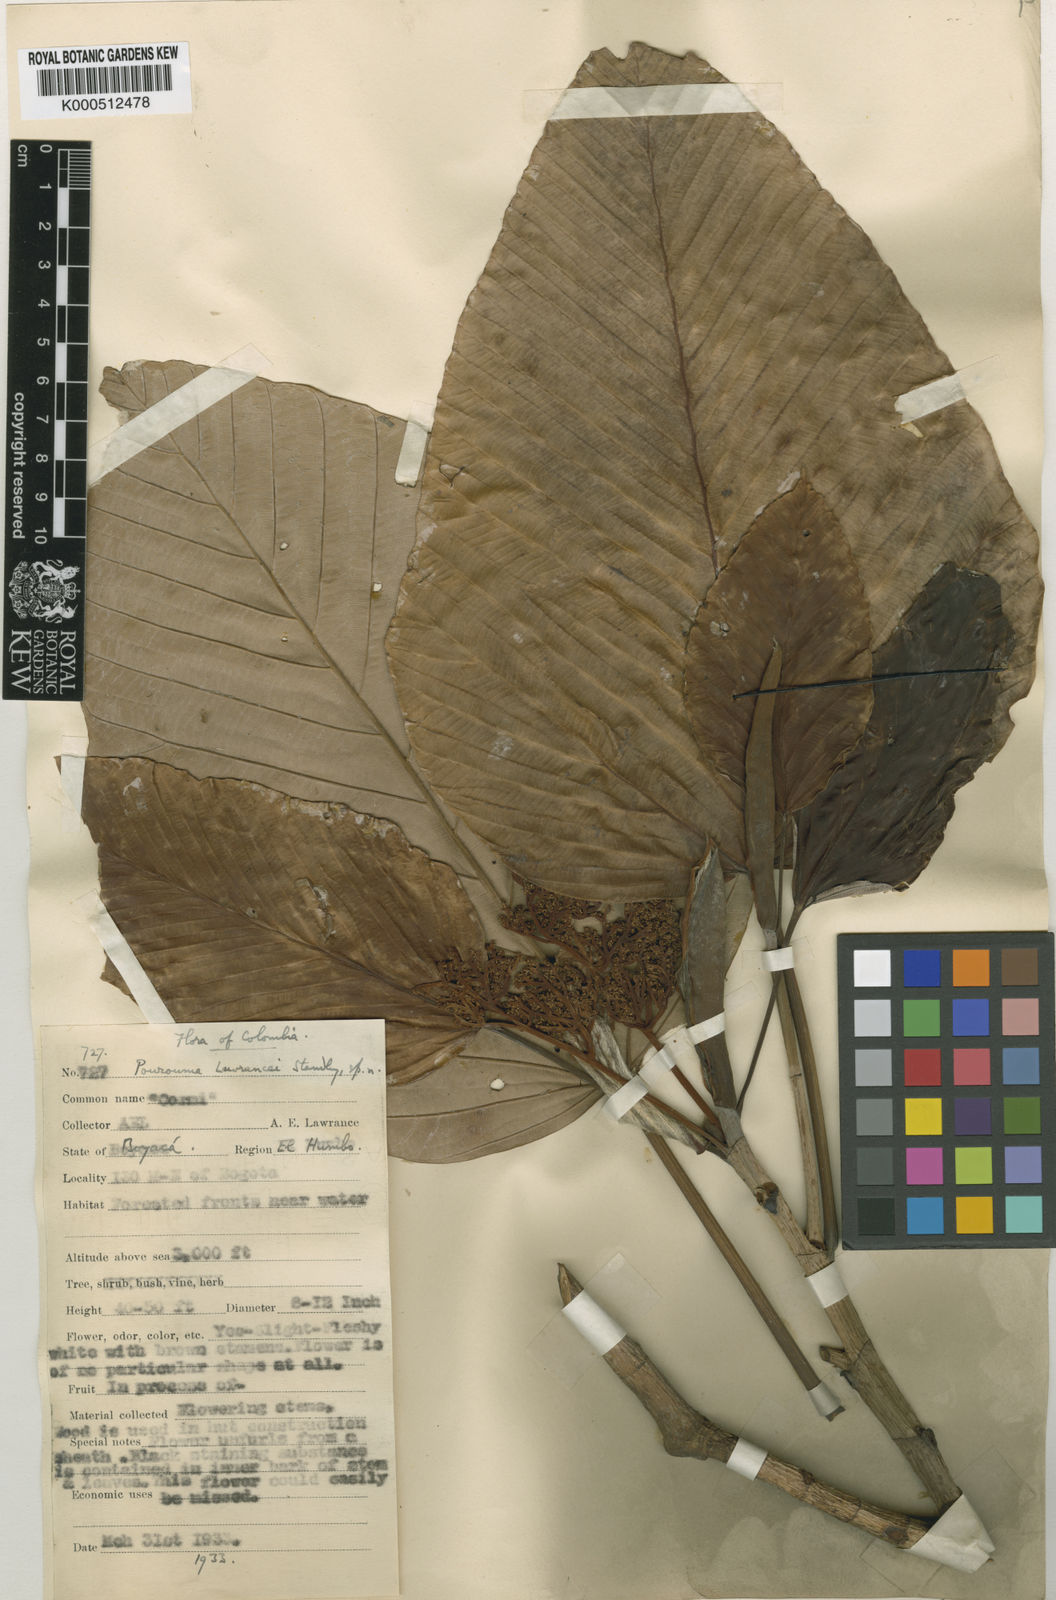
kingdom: Plantae
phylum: Tracheophyta
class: Magnoliopsida
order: Rosales
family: Urticaceae
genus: Pourouma
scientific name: Pourouma bicolor
